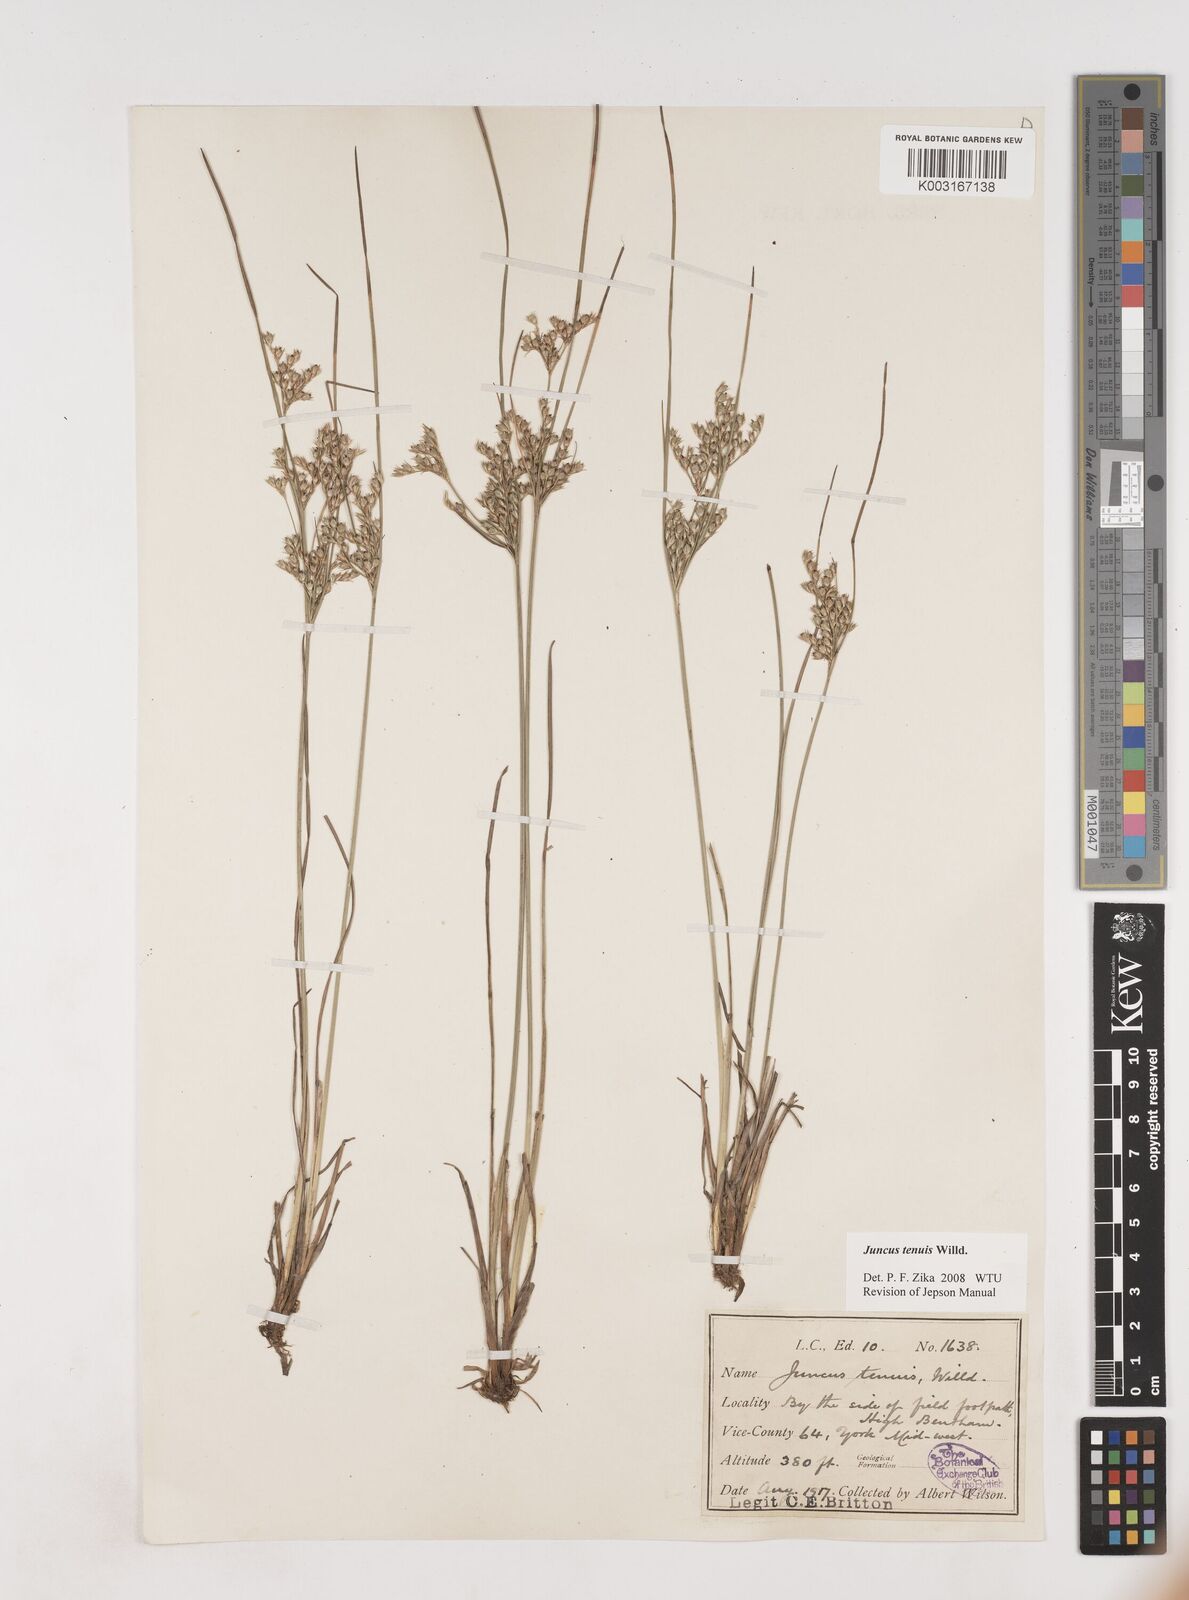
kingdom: Plantae
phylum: Tracheophyta
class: Liliopsida
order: Poales
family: Juncaceae
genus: Juncus
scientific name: Juncus tenuis
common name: Slender rush
